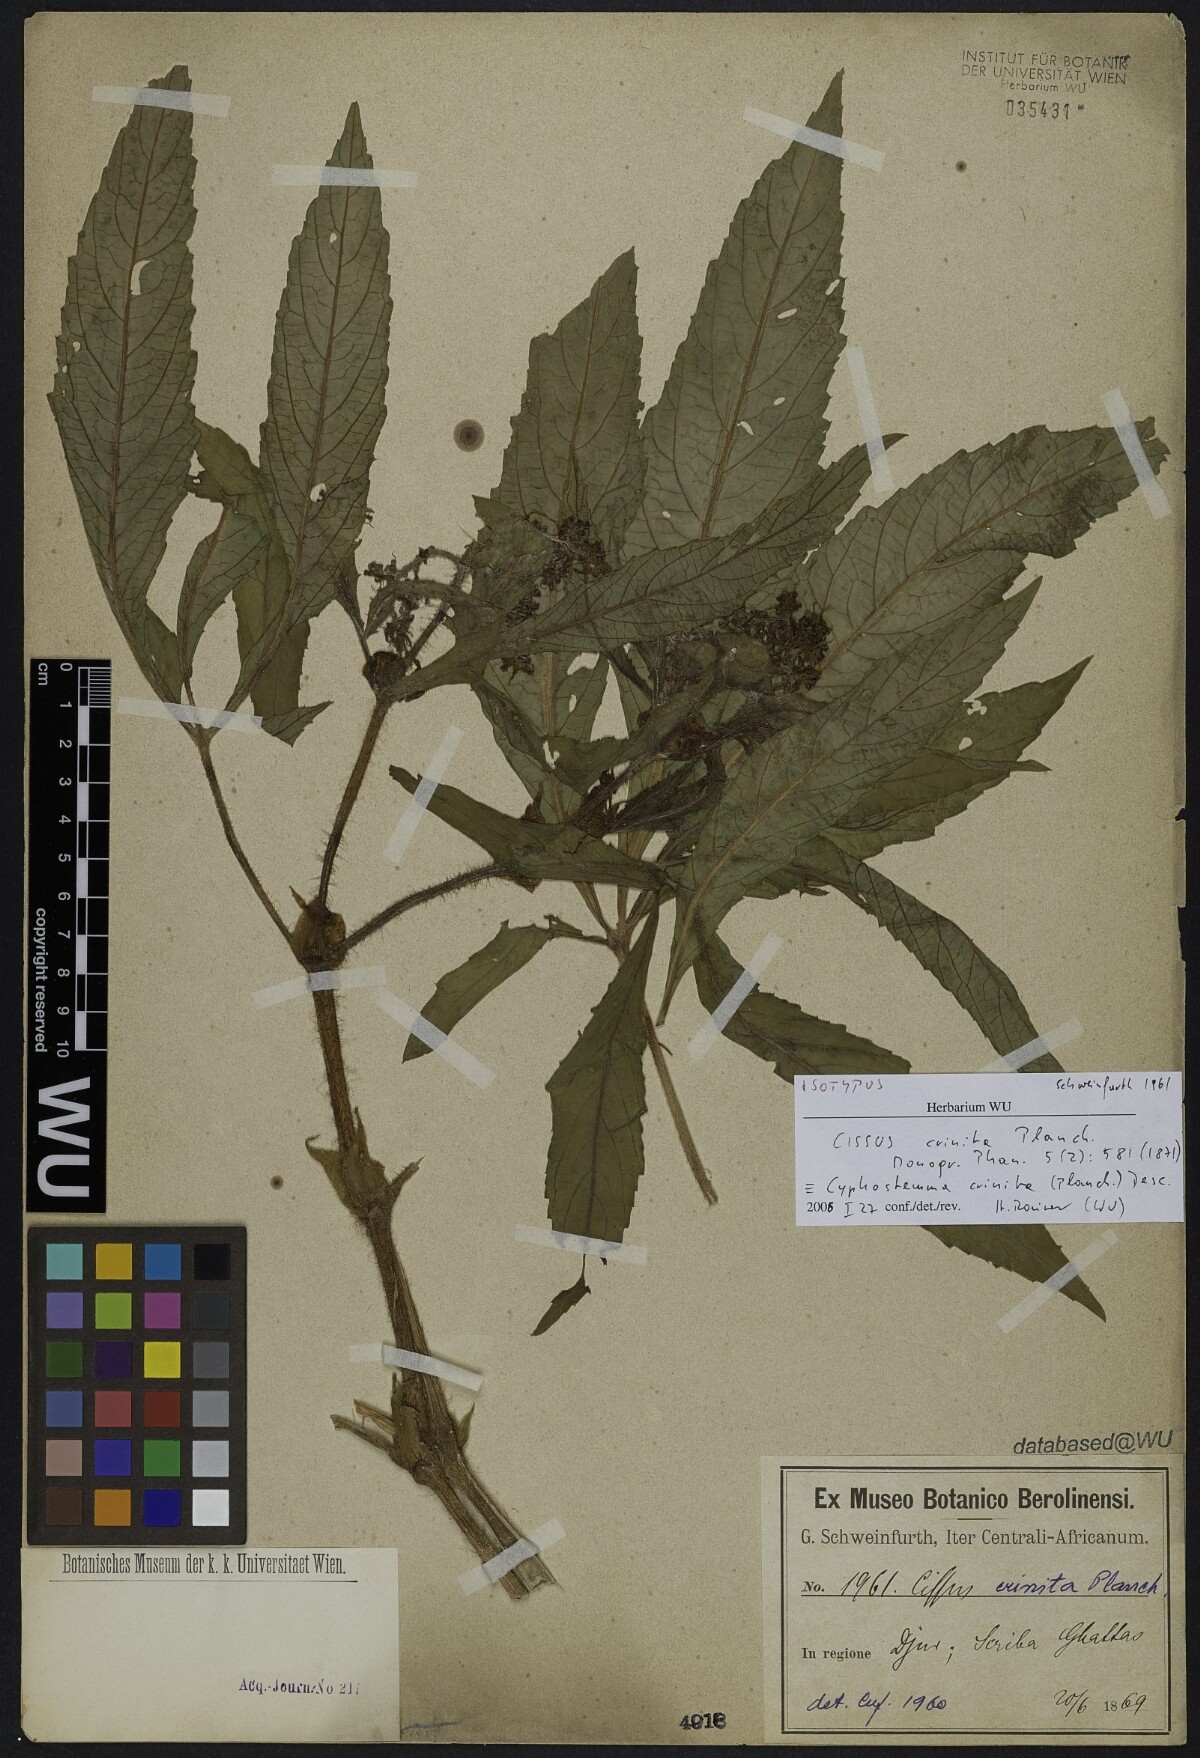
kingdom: Plantae
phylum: Tracheophyta
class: Magnoliopsida
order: Vitales
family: Vitaceae
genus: Cyphostemma
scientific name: Cyphostemma crinitum
